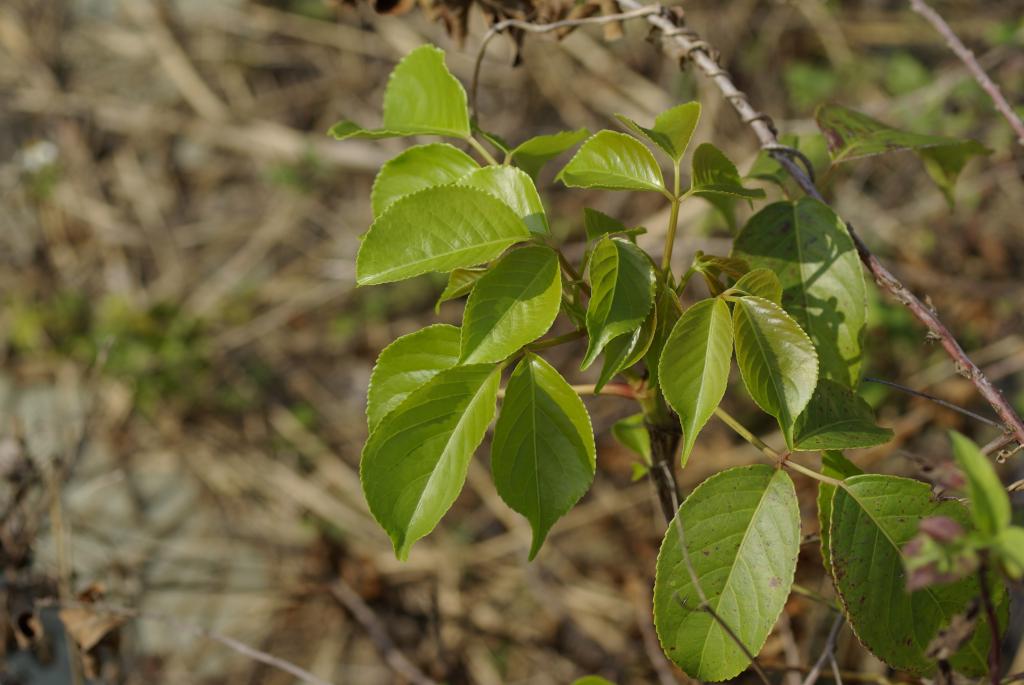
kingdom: Plantae
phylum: Tracheophyta
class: Magnoliopsida
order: Malpighiales
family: Phyllanthaceae
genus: Bischofia
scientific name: Bischofia javanica
